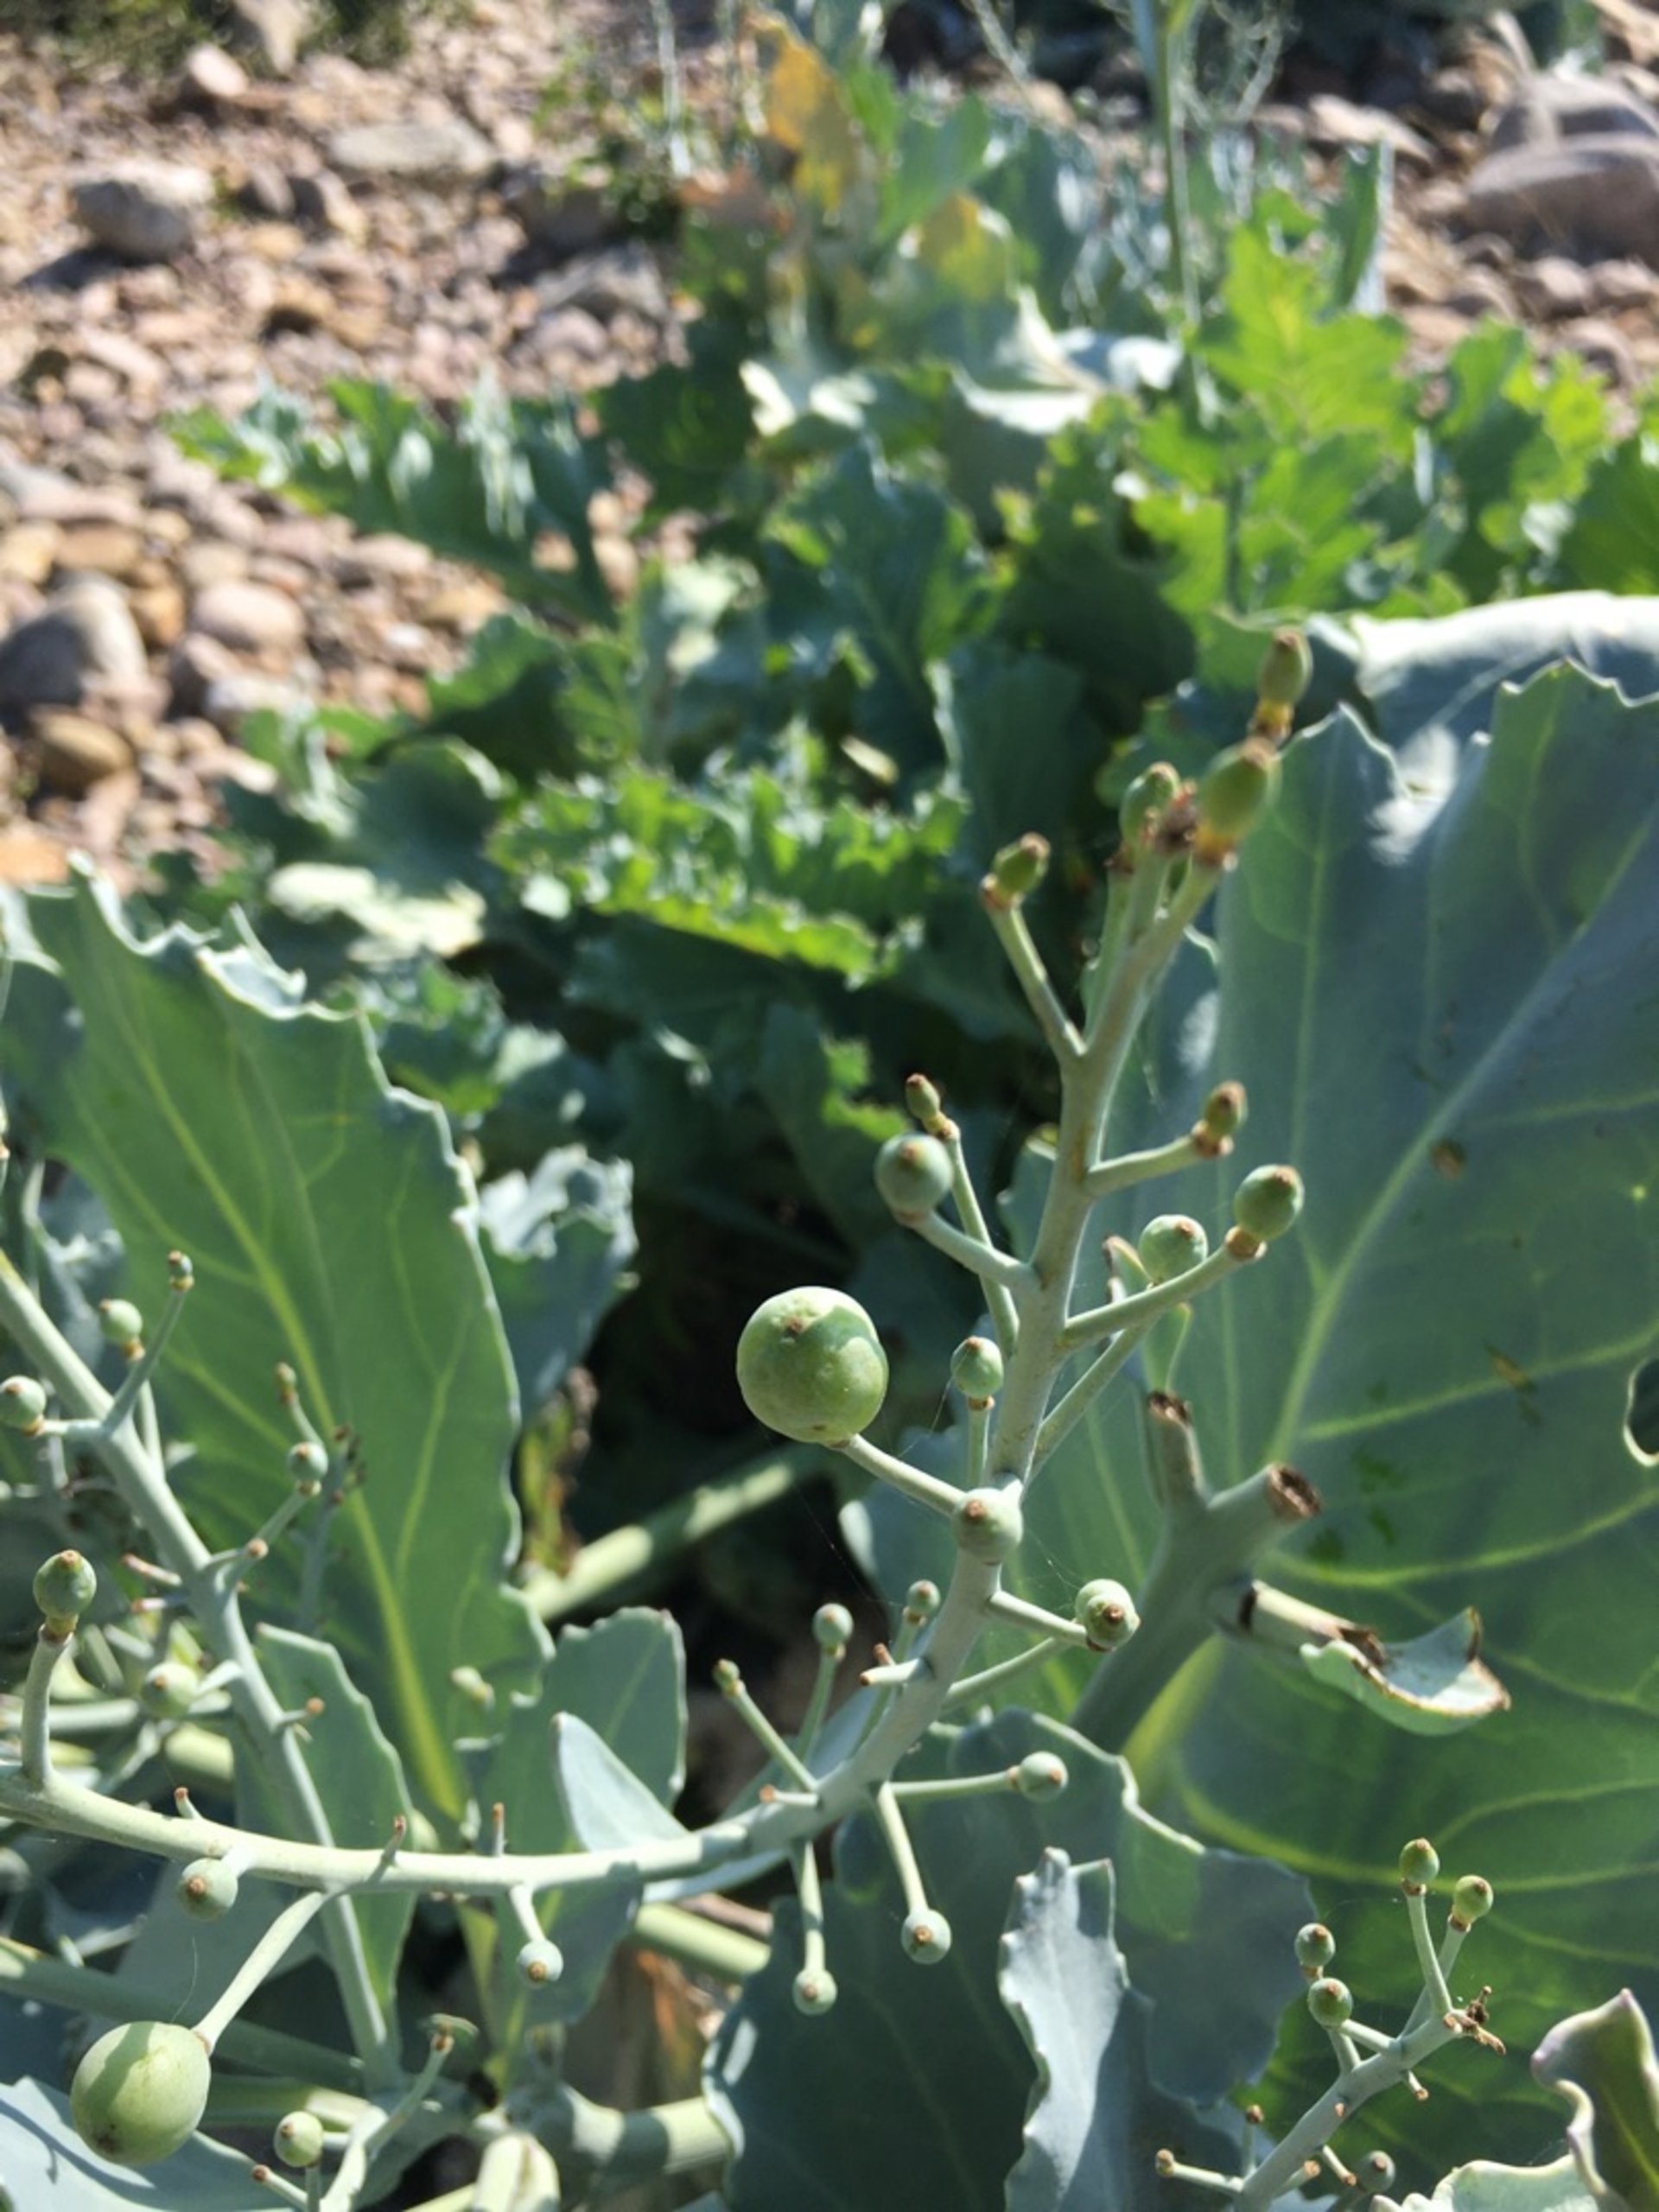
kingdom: Plantae
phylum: Tracheophyta
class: Magnoliopsida
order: Brassicales
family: Brassicaceae
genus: Crambe
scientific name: Crambe maritima
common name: Strandkål
